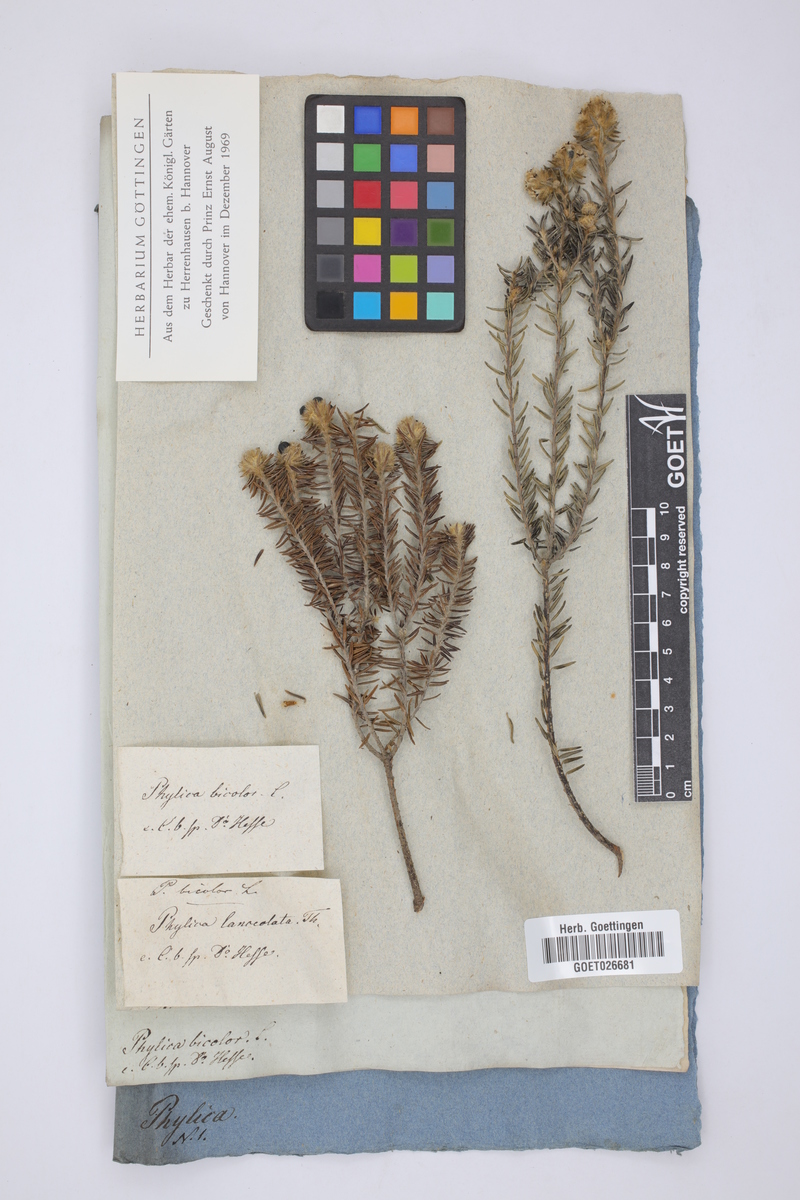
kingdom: Plantae
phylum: Tracheophyta
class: Magnoliopsida
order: Rosales
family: Rhamnaceae
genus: Phylica
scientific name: Phylica strigosa
